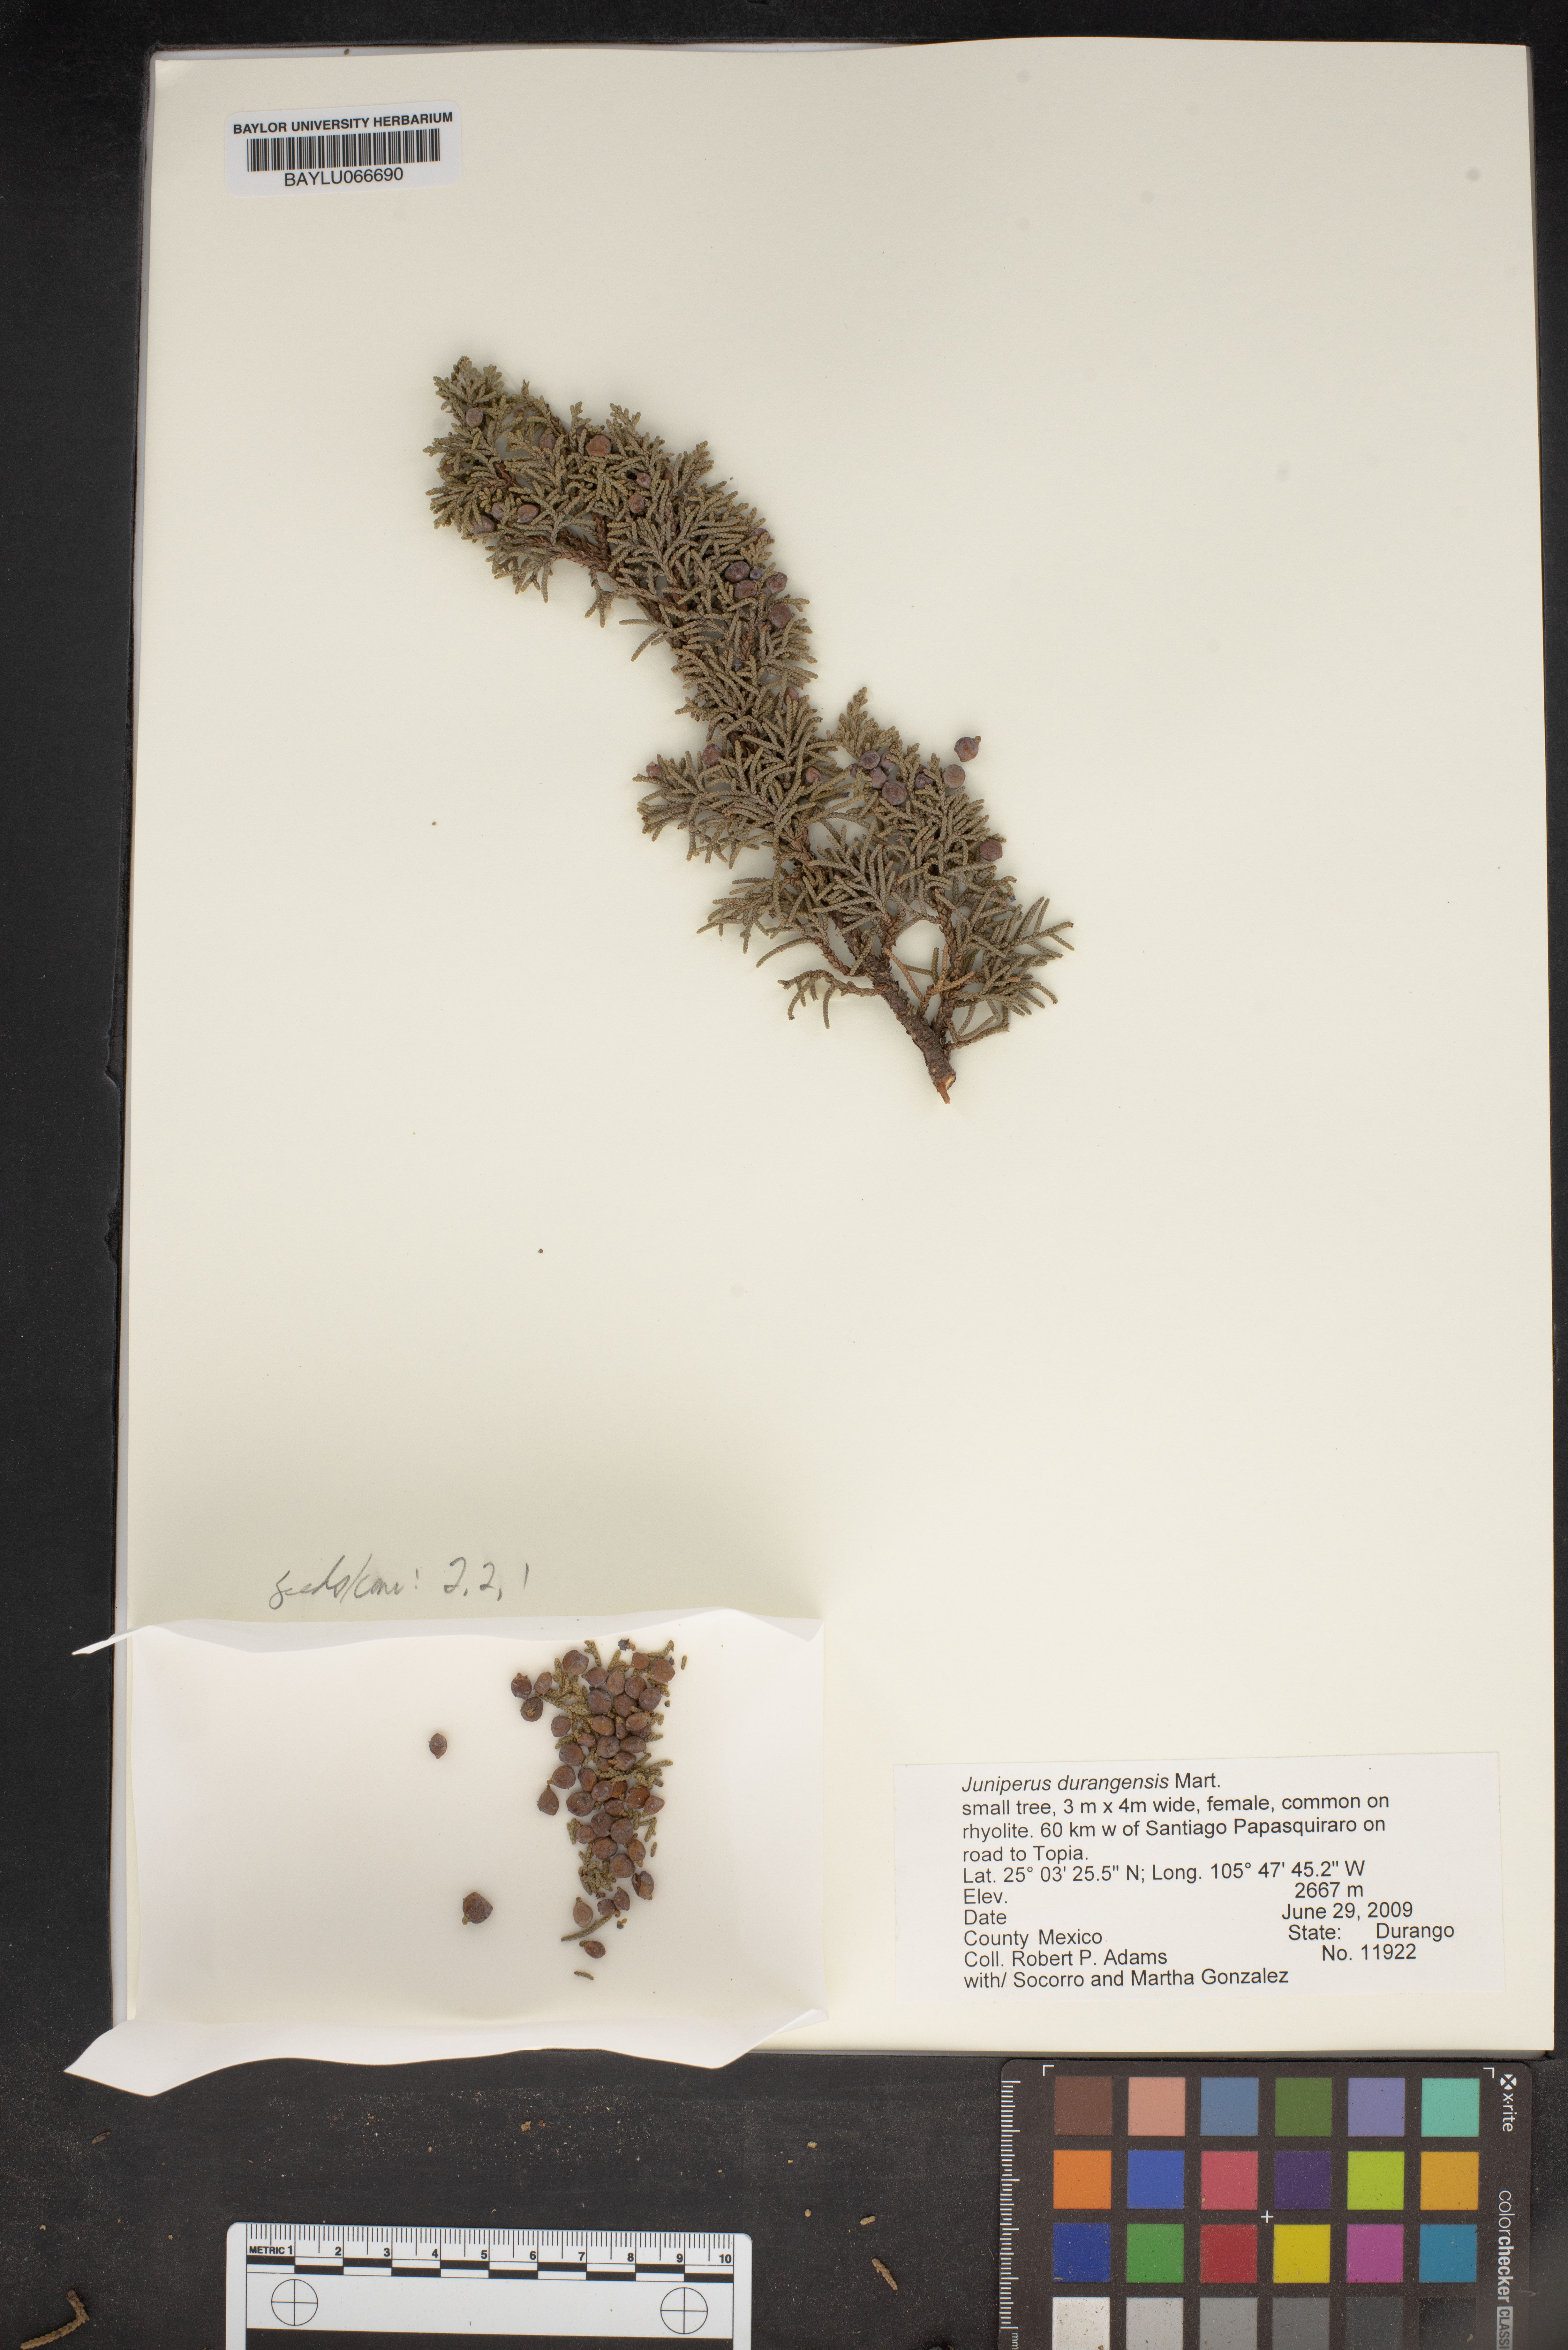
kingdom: Plantae
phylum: Tracheophyta
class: Pinopsida
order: Pinales
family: Cupressaceae
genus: Juniperus
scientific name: Juniperus durangensis
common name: Durango juniper
